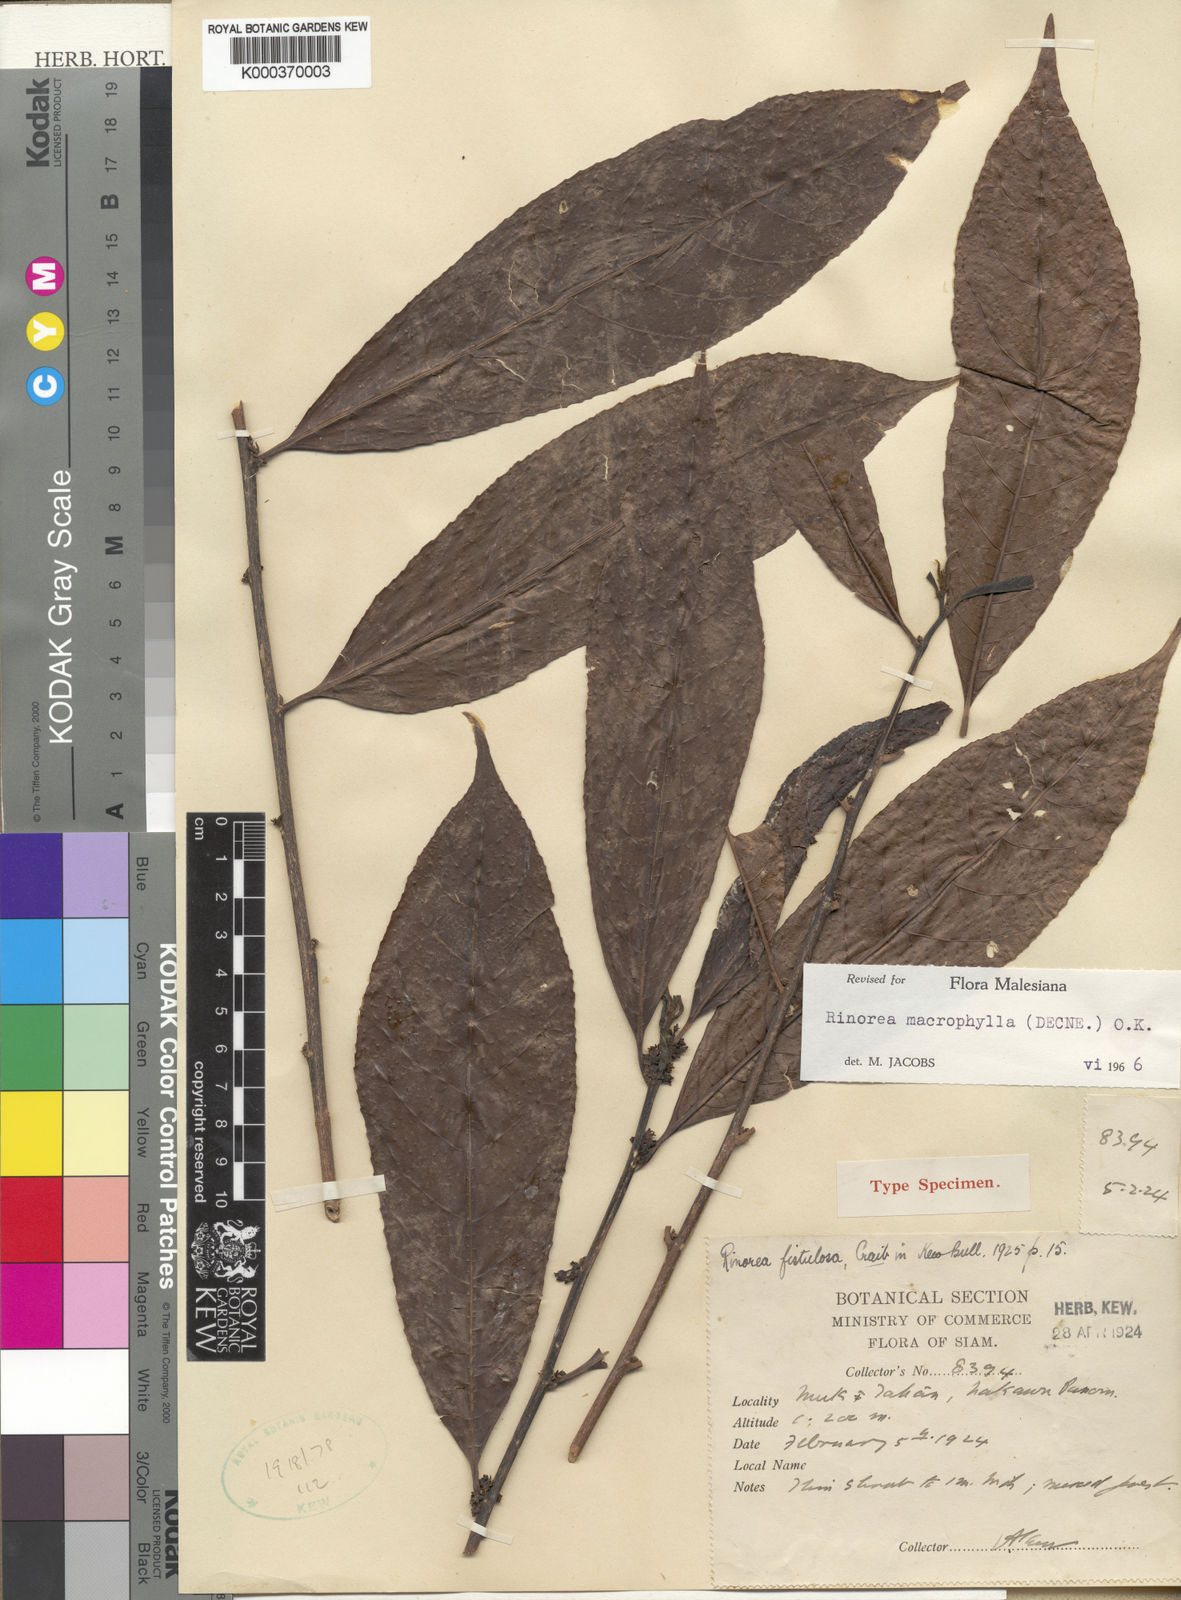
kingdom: Plantae
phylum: Tracheophyta
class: Magnoliopsida
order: Malpighiales
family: Violaceae
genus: Rinorea
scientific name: Rinorea macrophylla
